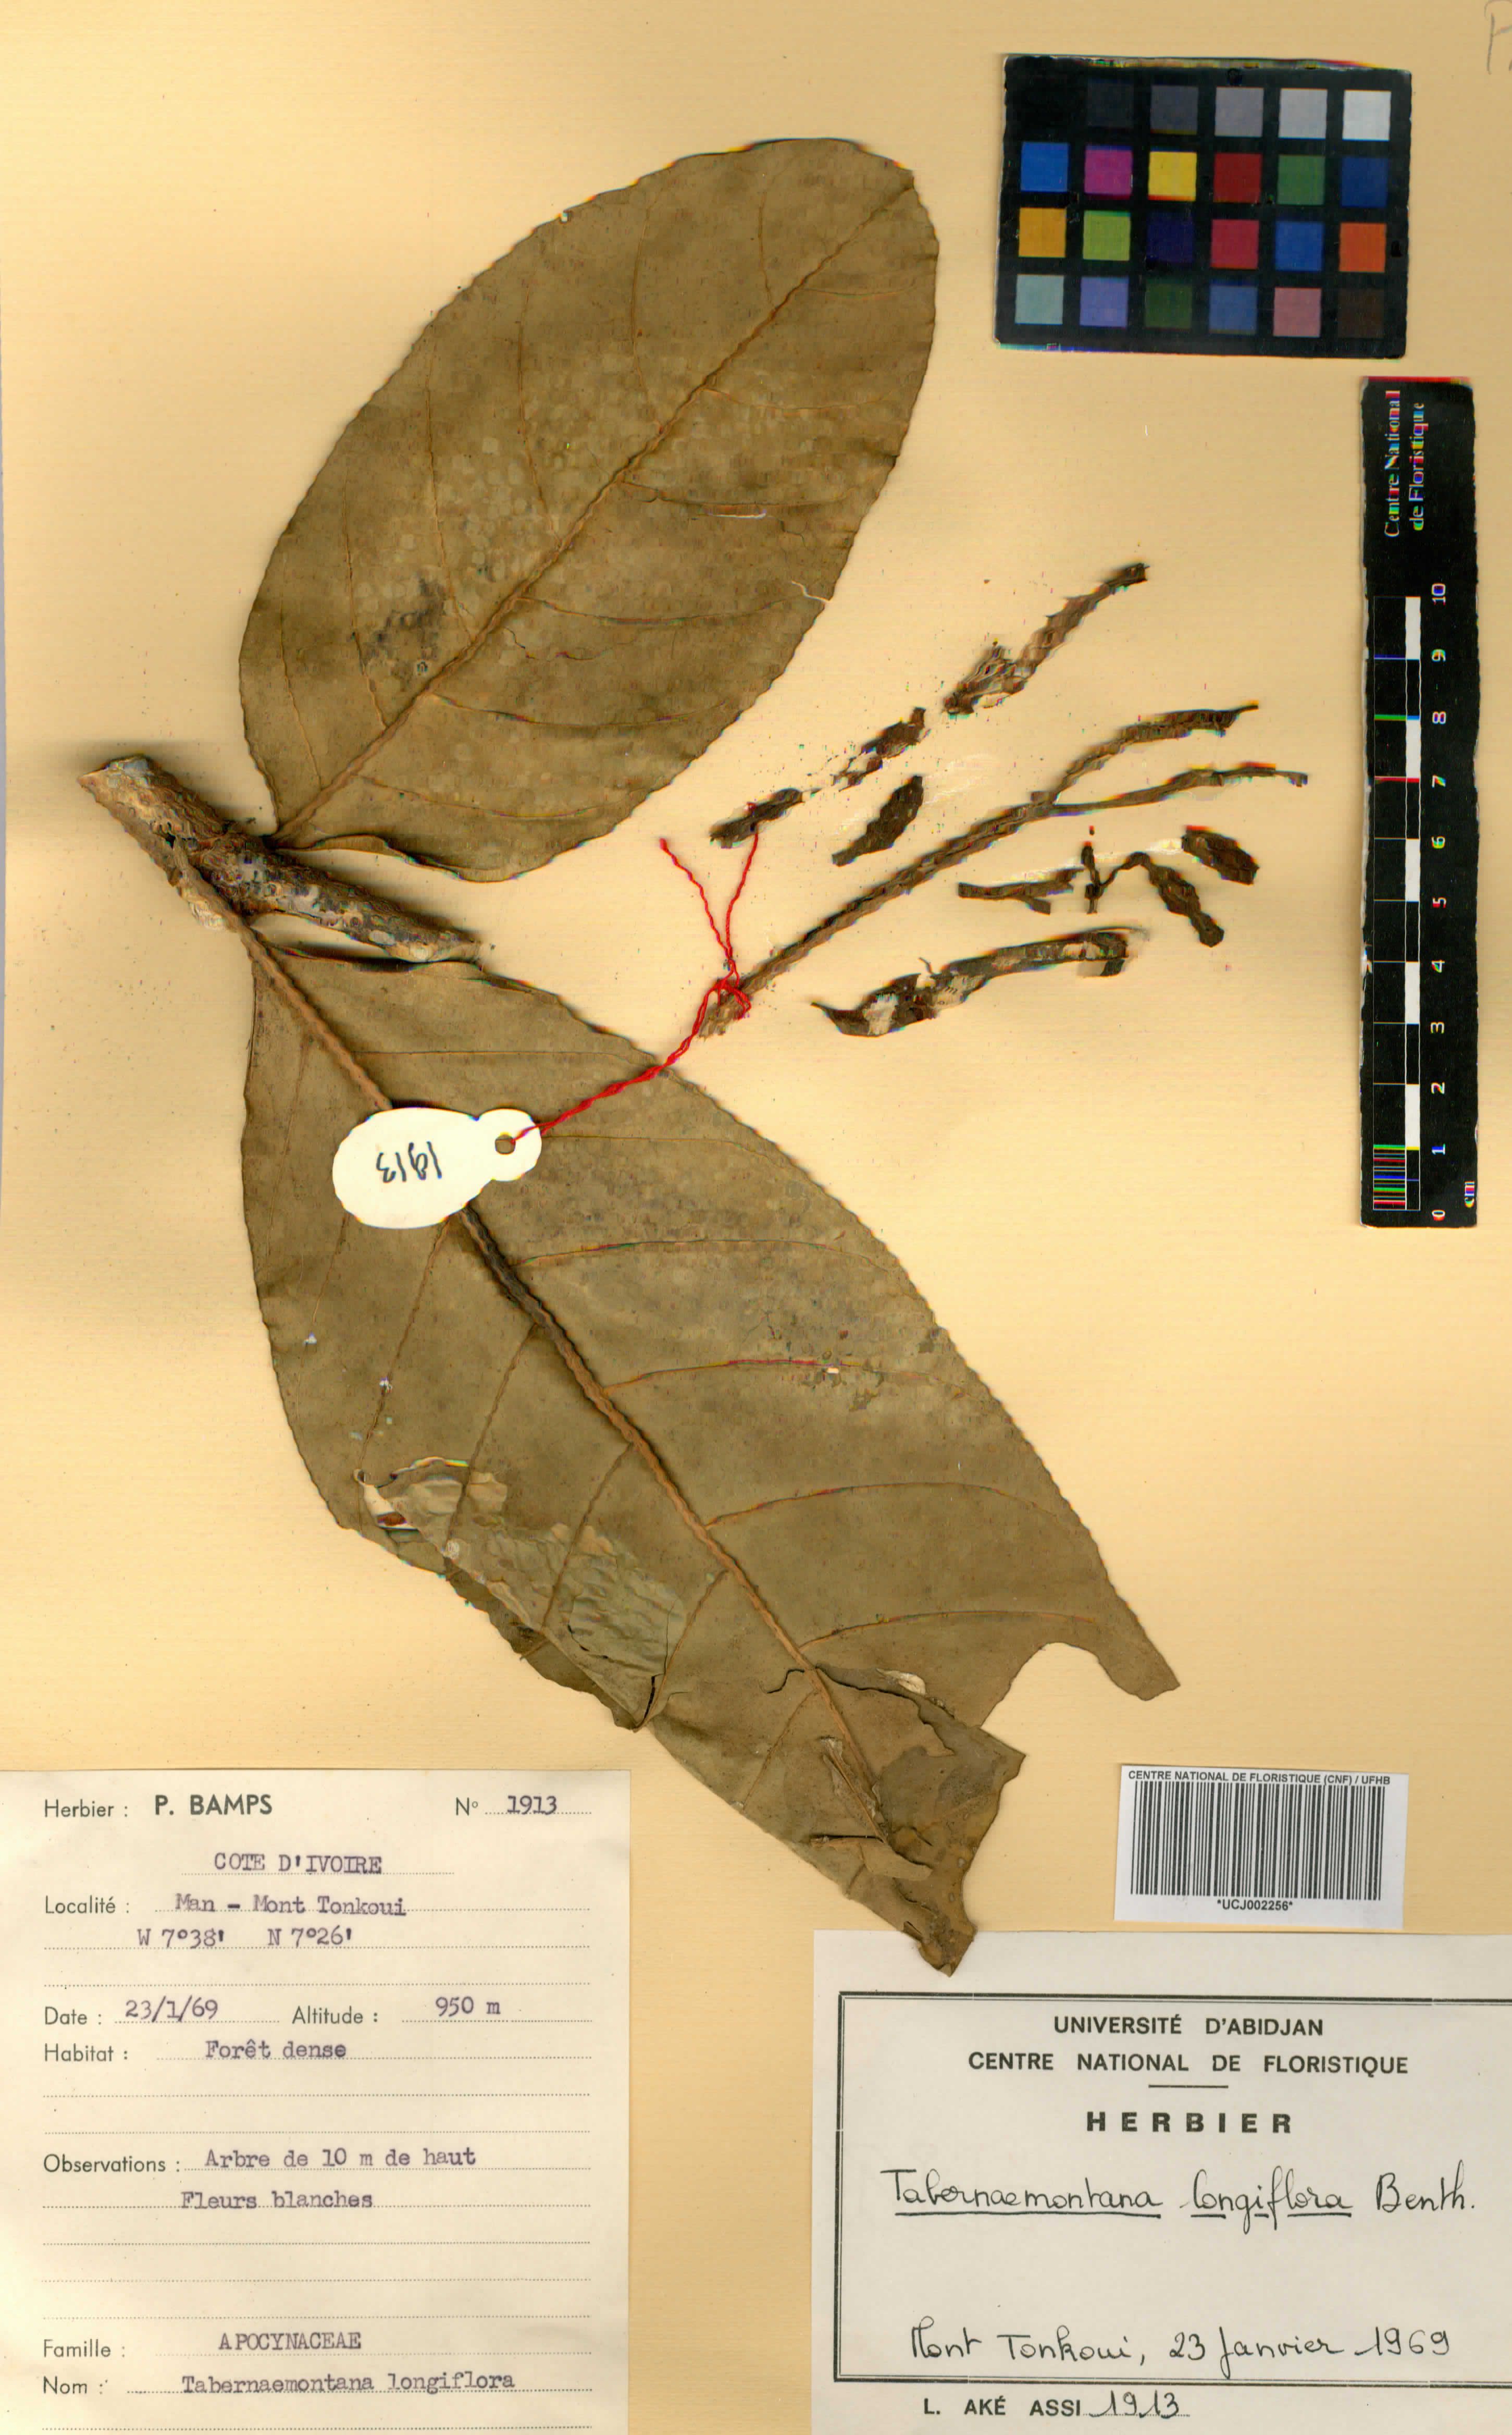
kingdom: Plantae
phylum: Tracheophyta
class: Magnoliopsida
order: Gentianales
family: Apocynaceae
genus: Tabernaemontana
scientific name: Tabernaemontana africana
